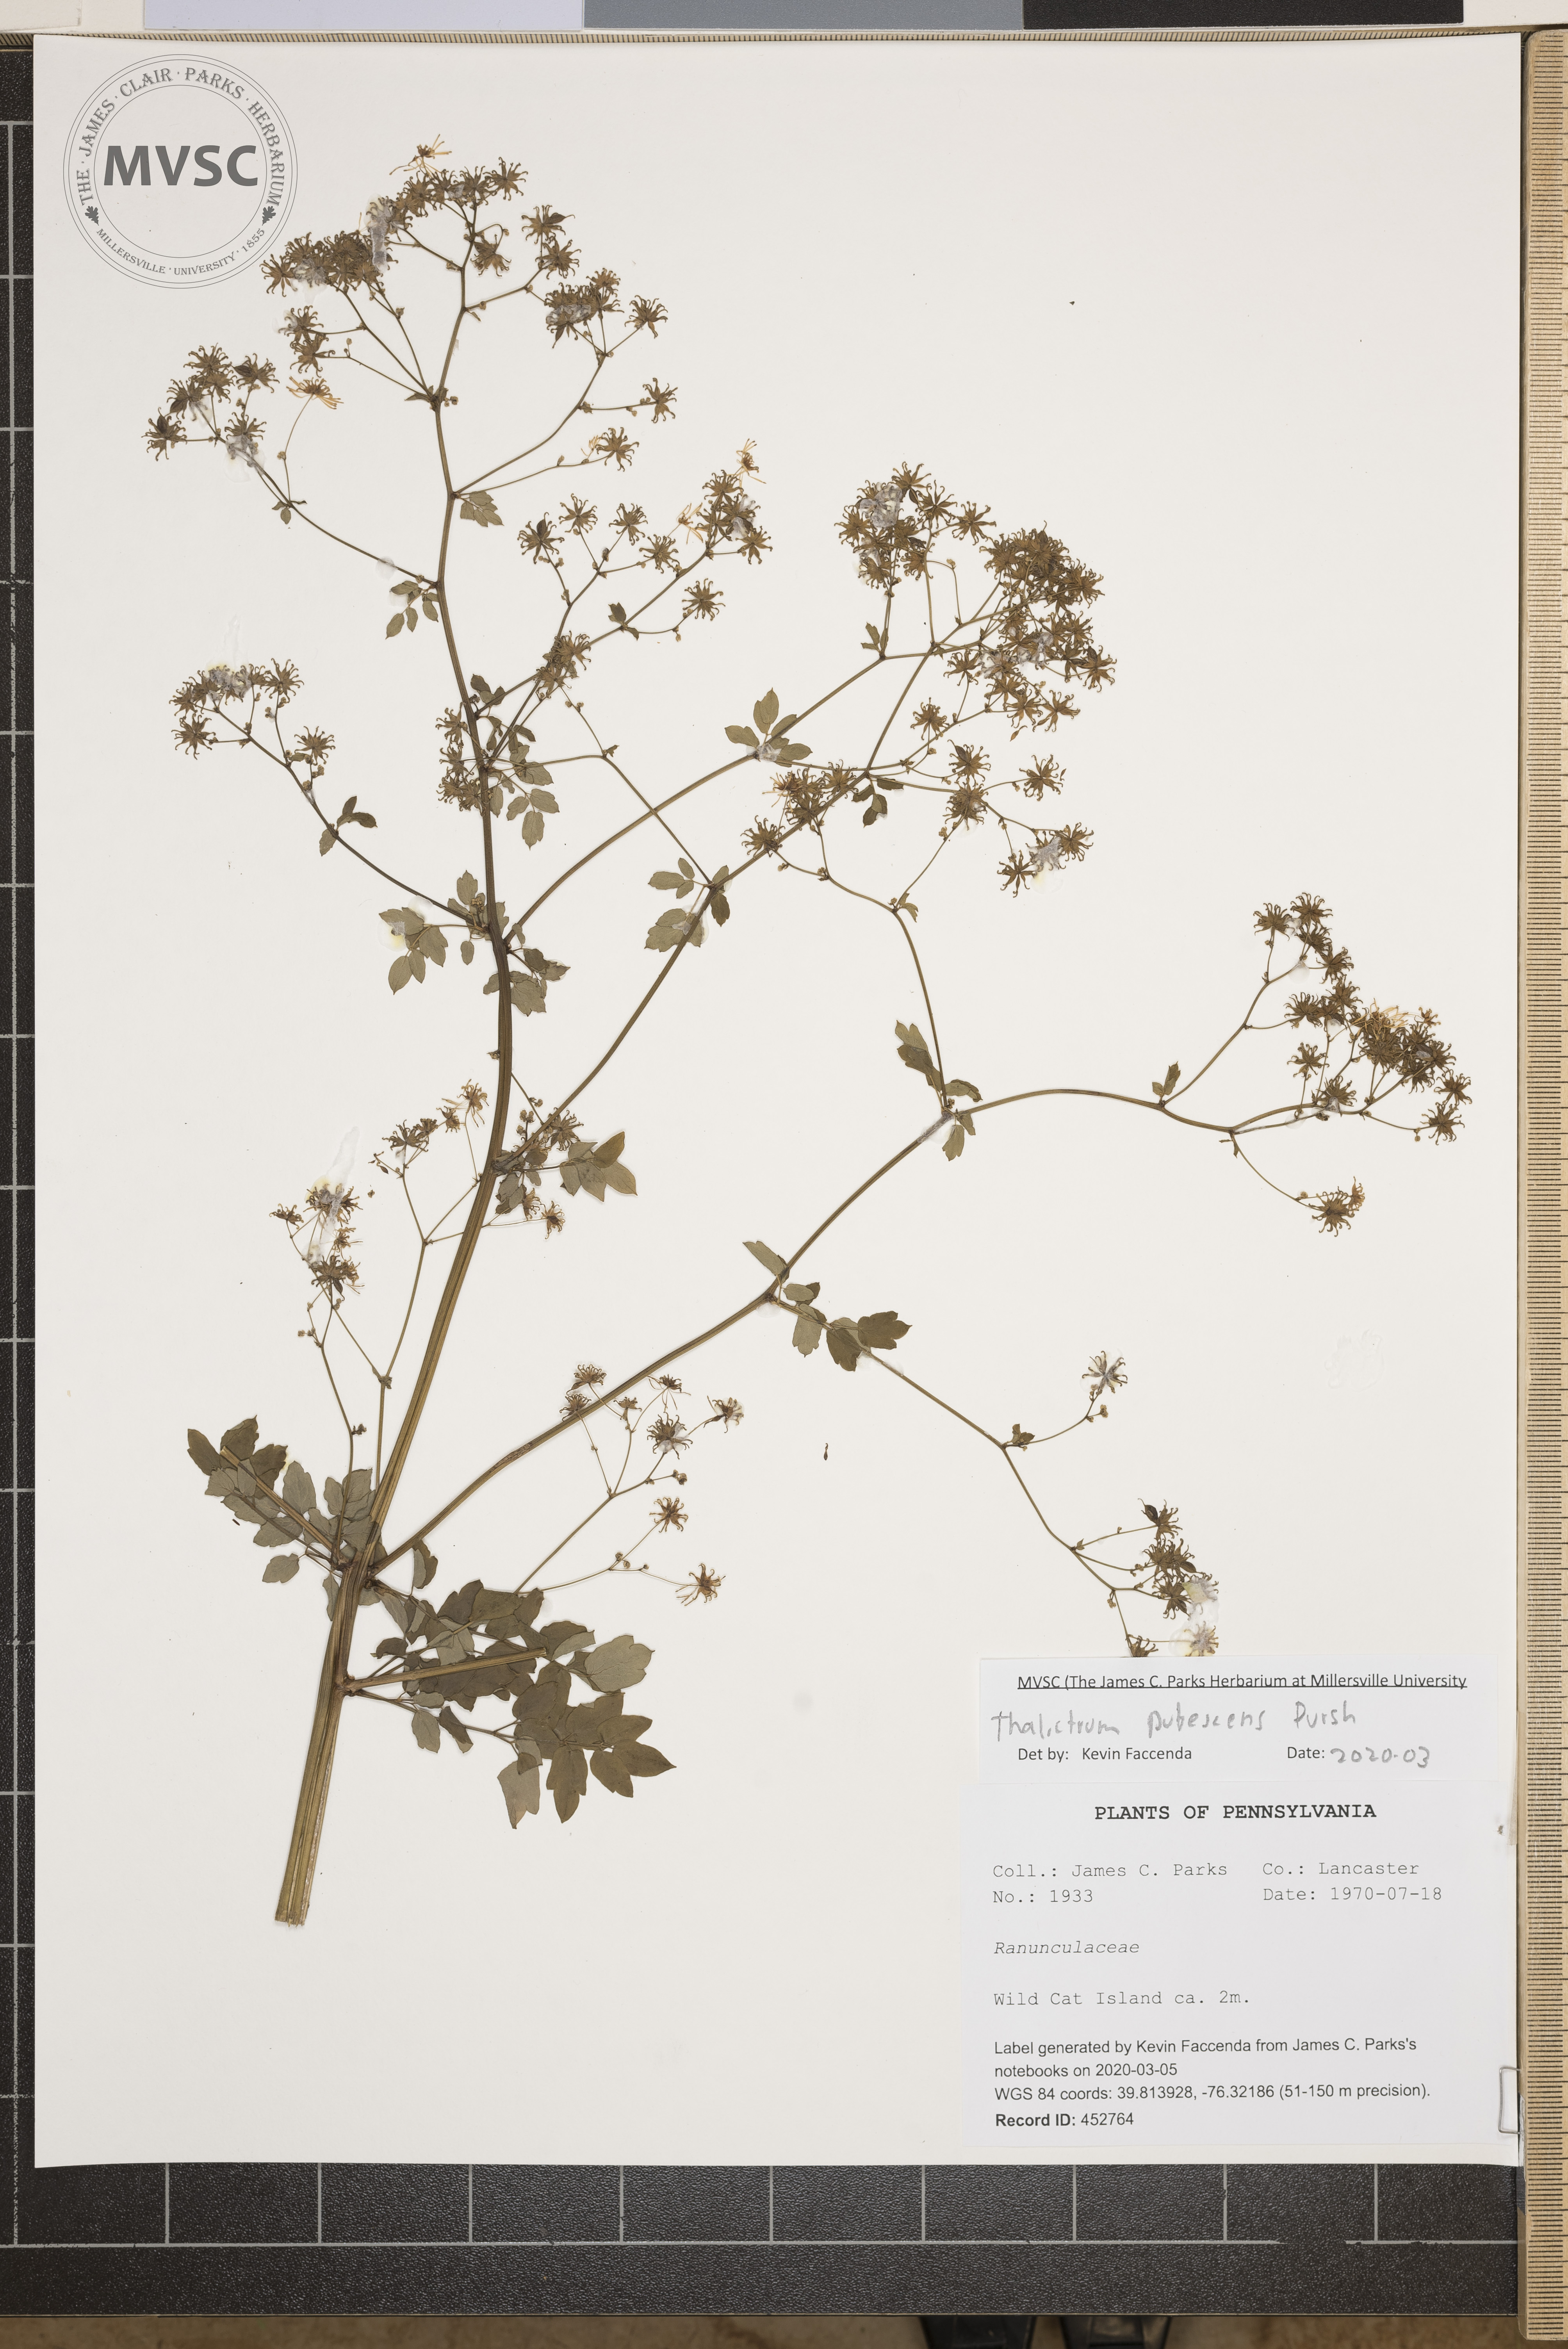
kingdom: Plantae
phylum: Tracheophyta
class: Magnoliopsida
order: Ranunculales
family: Ranunculaceae
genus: Thalictrum
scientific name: Thalictrum pubescens
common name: King-of-the-meadow
